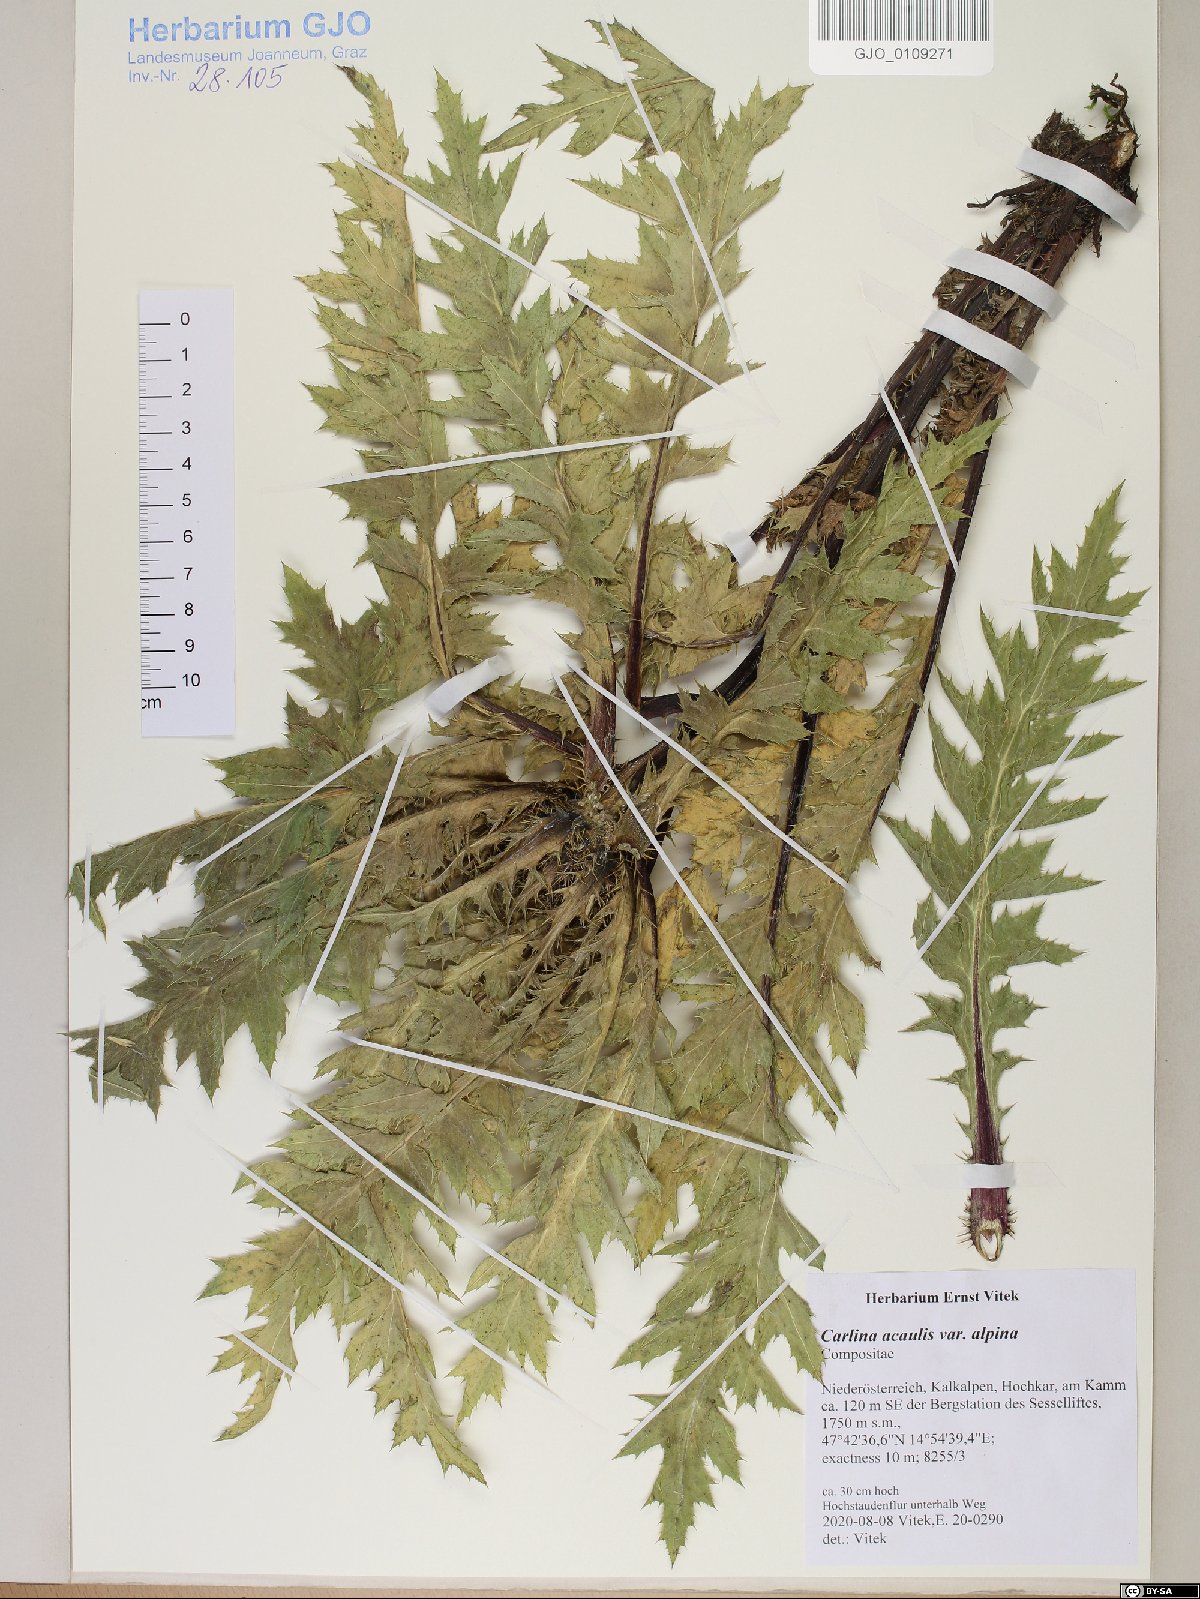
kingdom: Plantae
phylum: Tracheophyta
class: Magnoliopsida
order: Asterales
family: Asteraceae
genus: Carlina
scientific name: Carlina acaulis
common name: Stemless carline thistle
